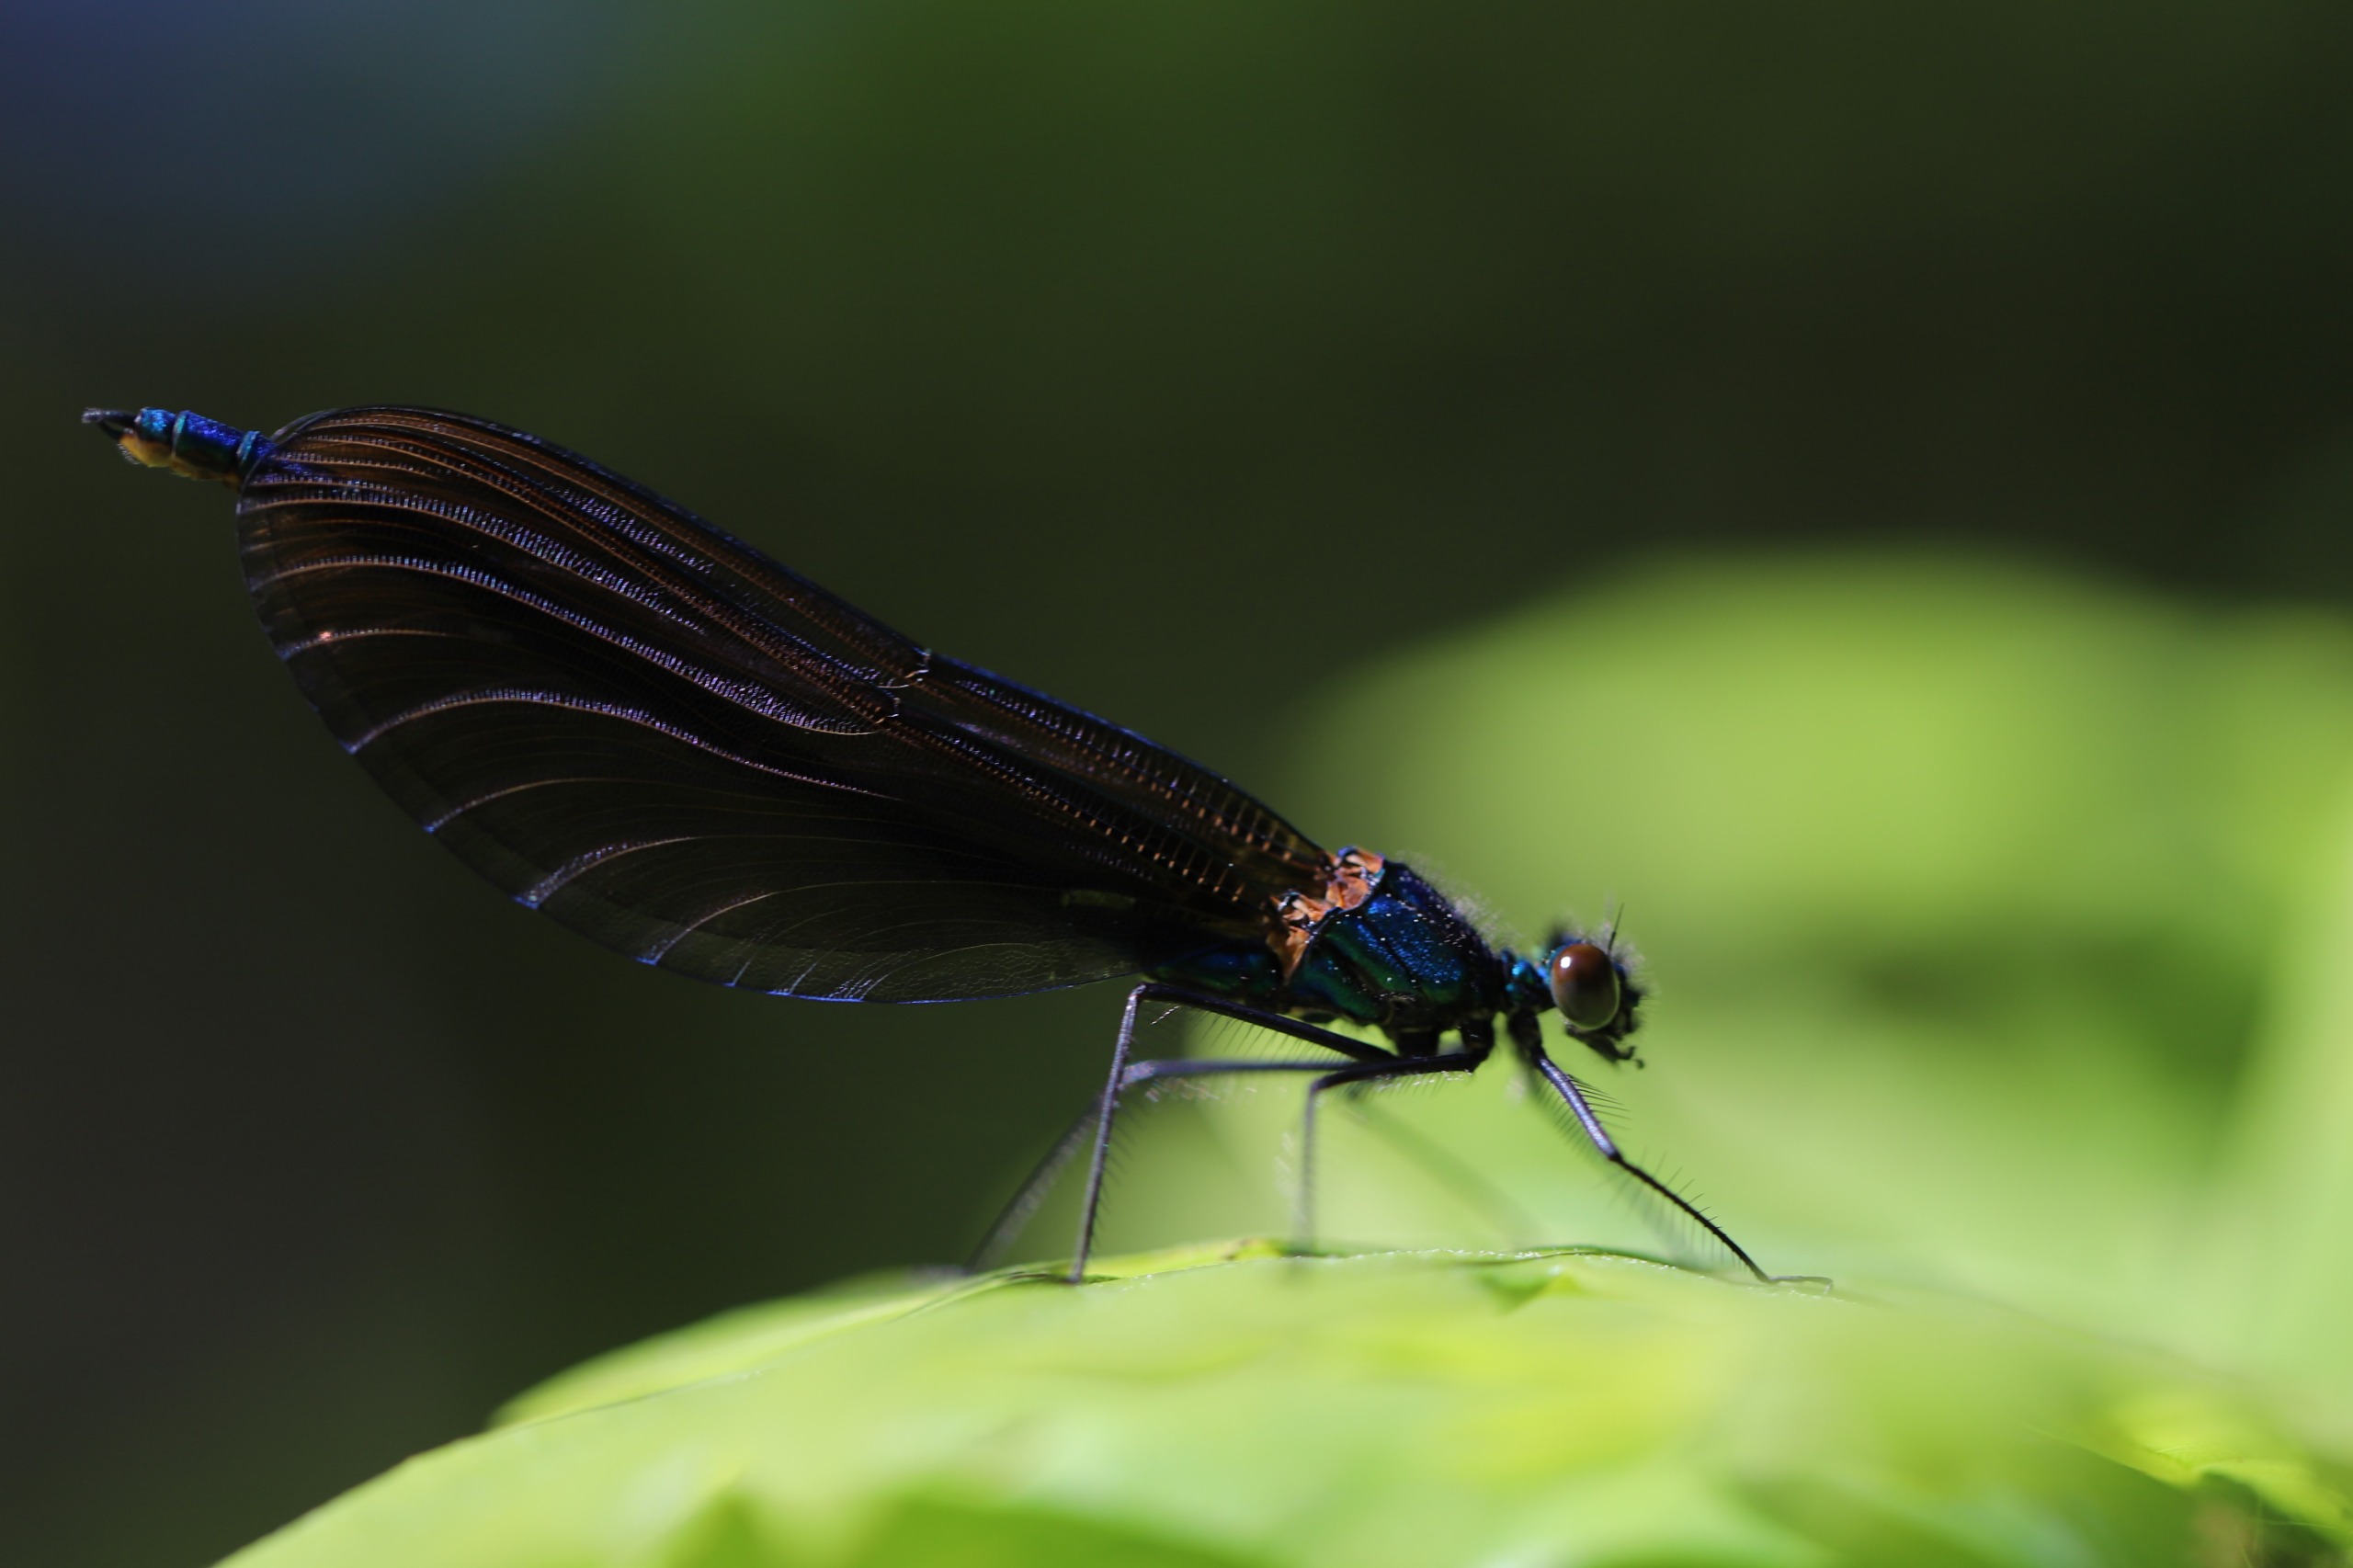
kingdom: Animalia
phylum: Arthropoda
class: Insecta
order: Odonata
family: Calopterygidae
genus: Calopteryx
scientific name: Calopteryx virgo
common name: Blåvinget pragtvandnymfe
